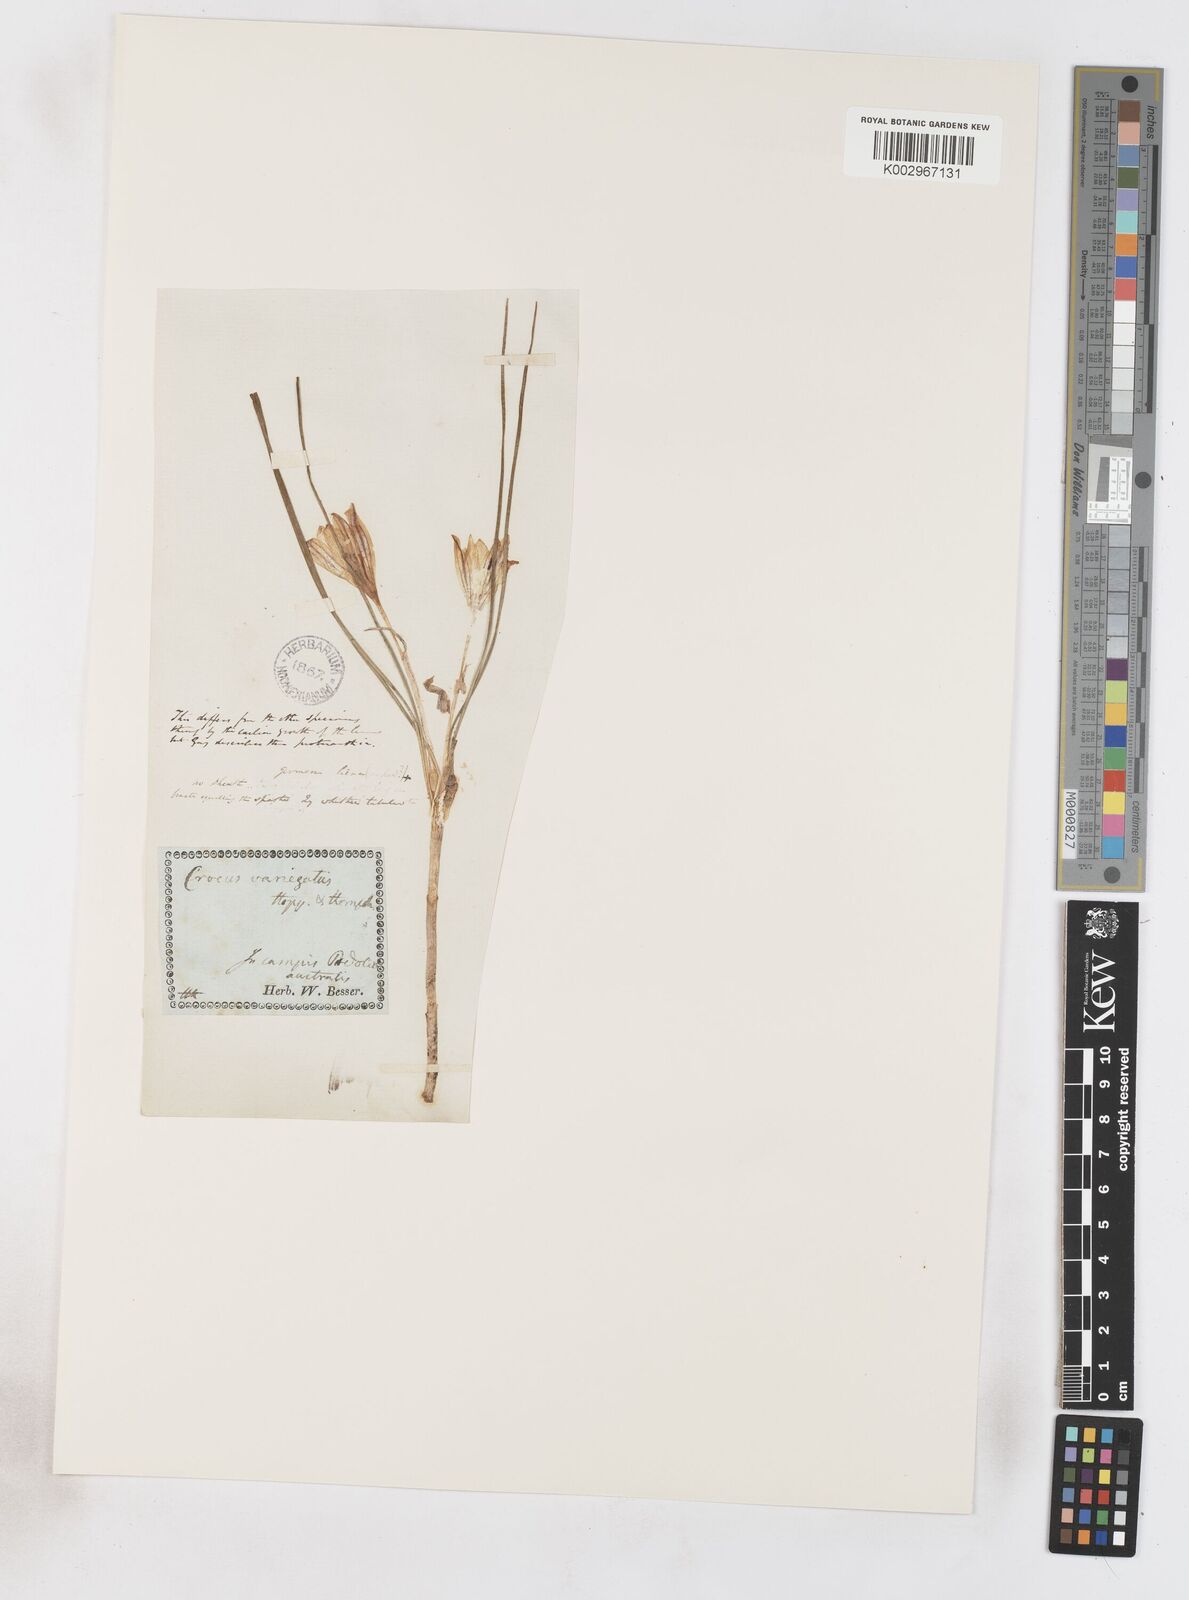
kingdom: Plantae
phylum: Tracheophyta
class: Liliopsida
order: Asparagales
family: Iridaceae
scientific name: Iridaceae
